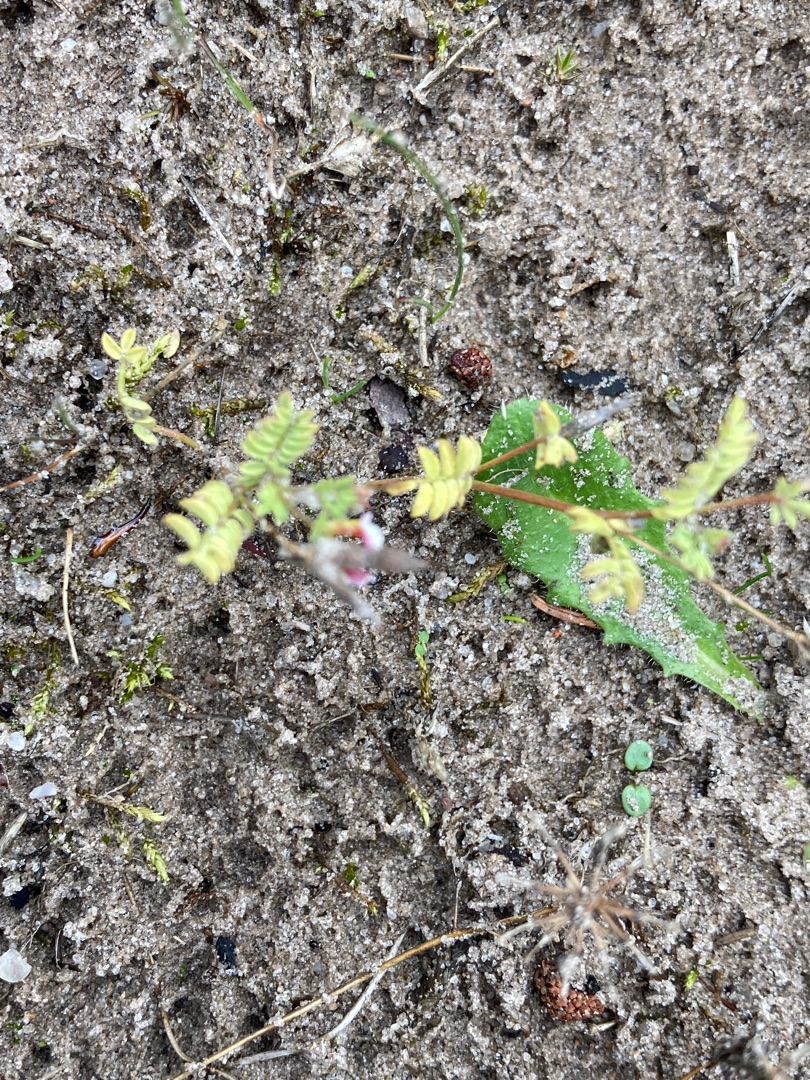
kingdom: Plantae
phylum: Tracheophyta
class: Magnoliopsida
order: Fabales
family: Fabaceae
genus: Ornithopus
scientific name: Ornithopus perpusillus
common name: Liden fugleklo
